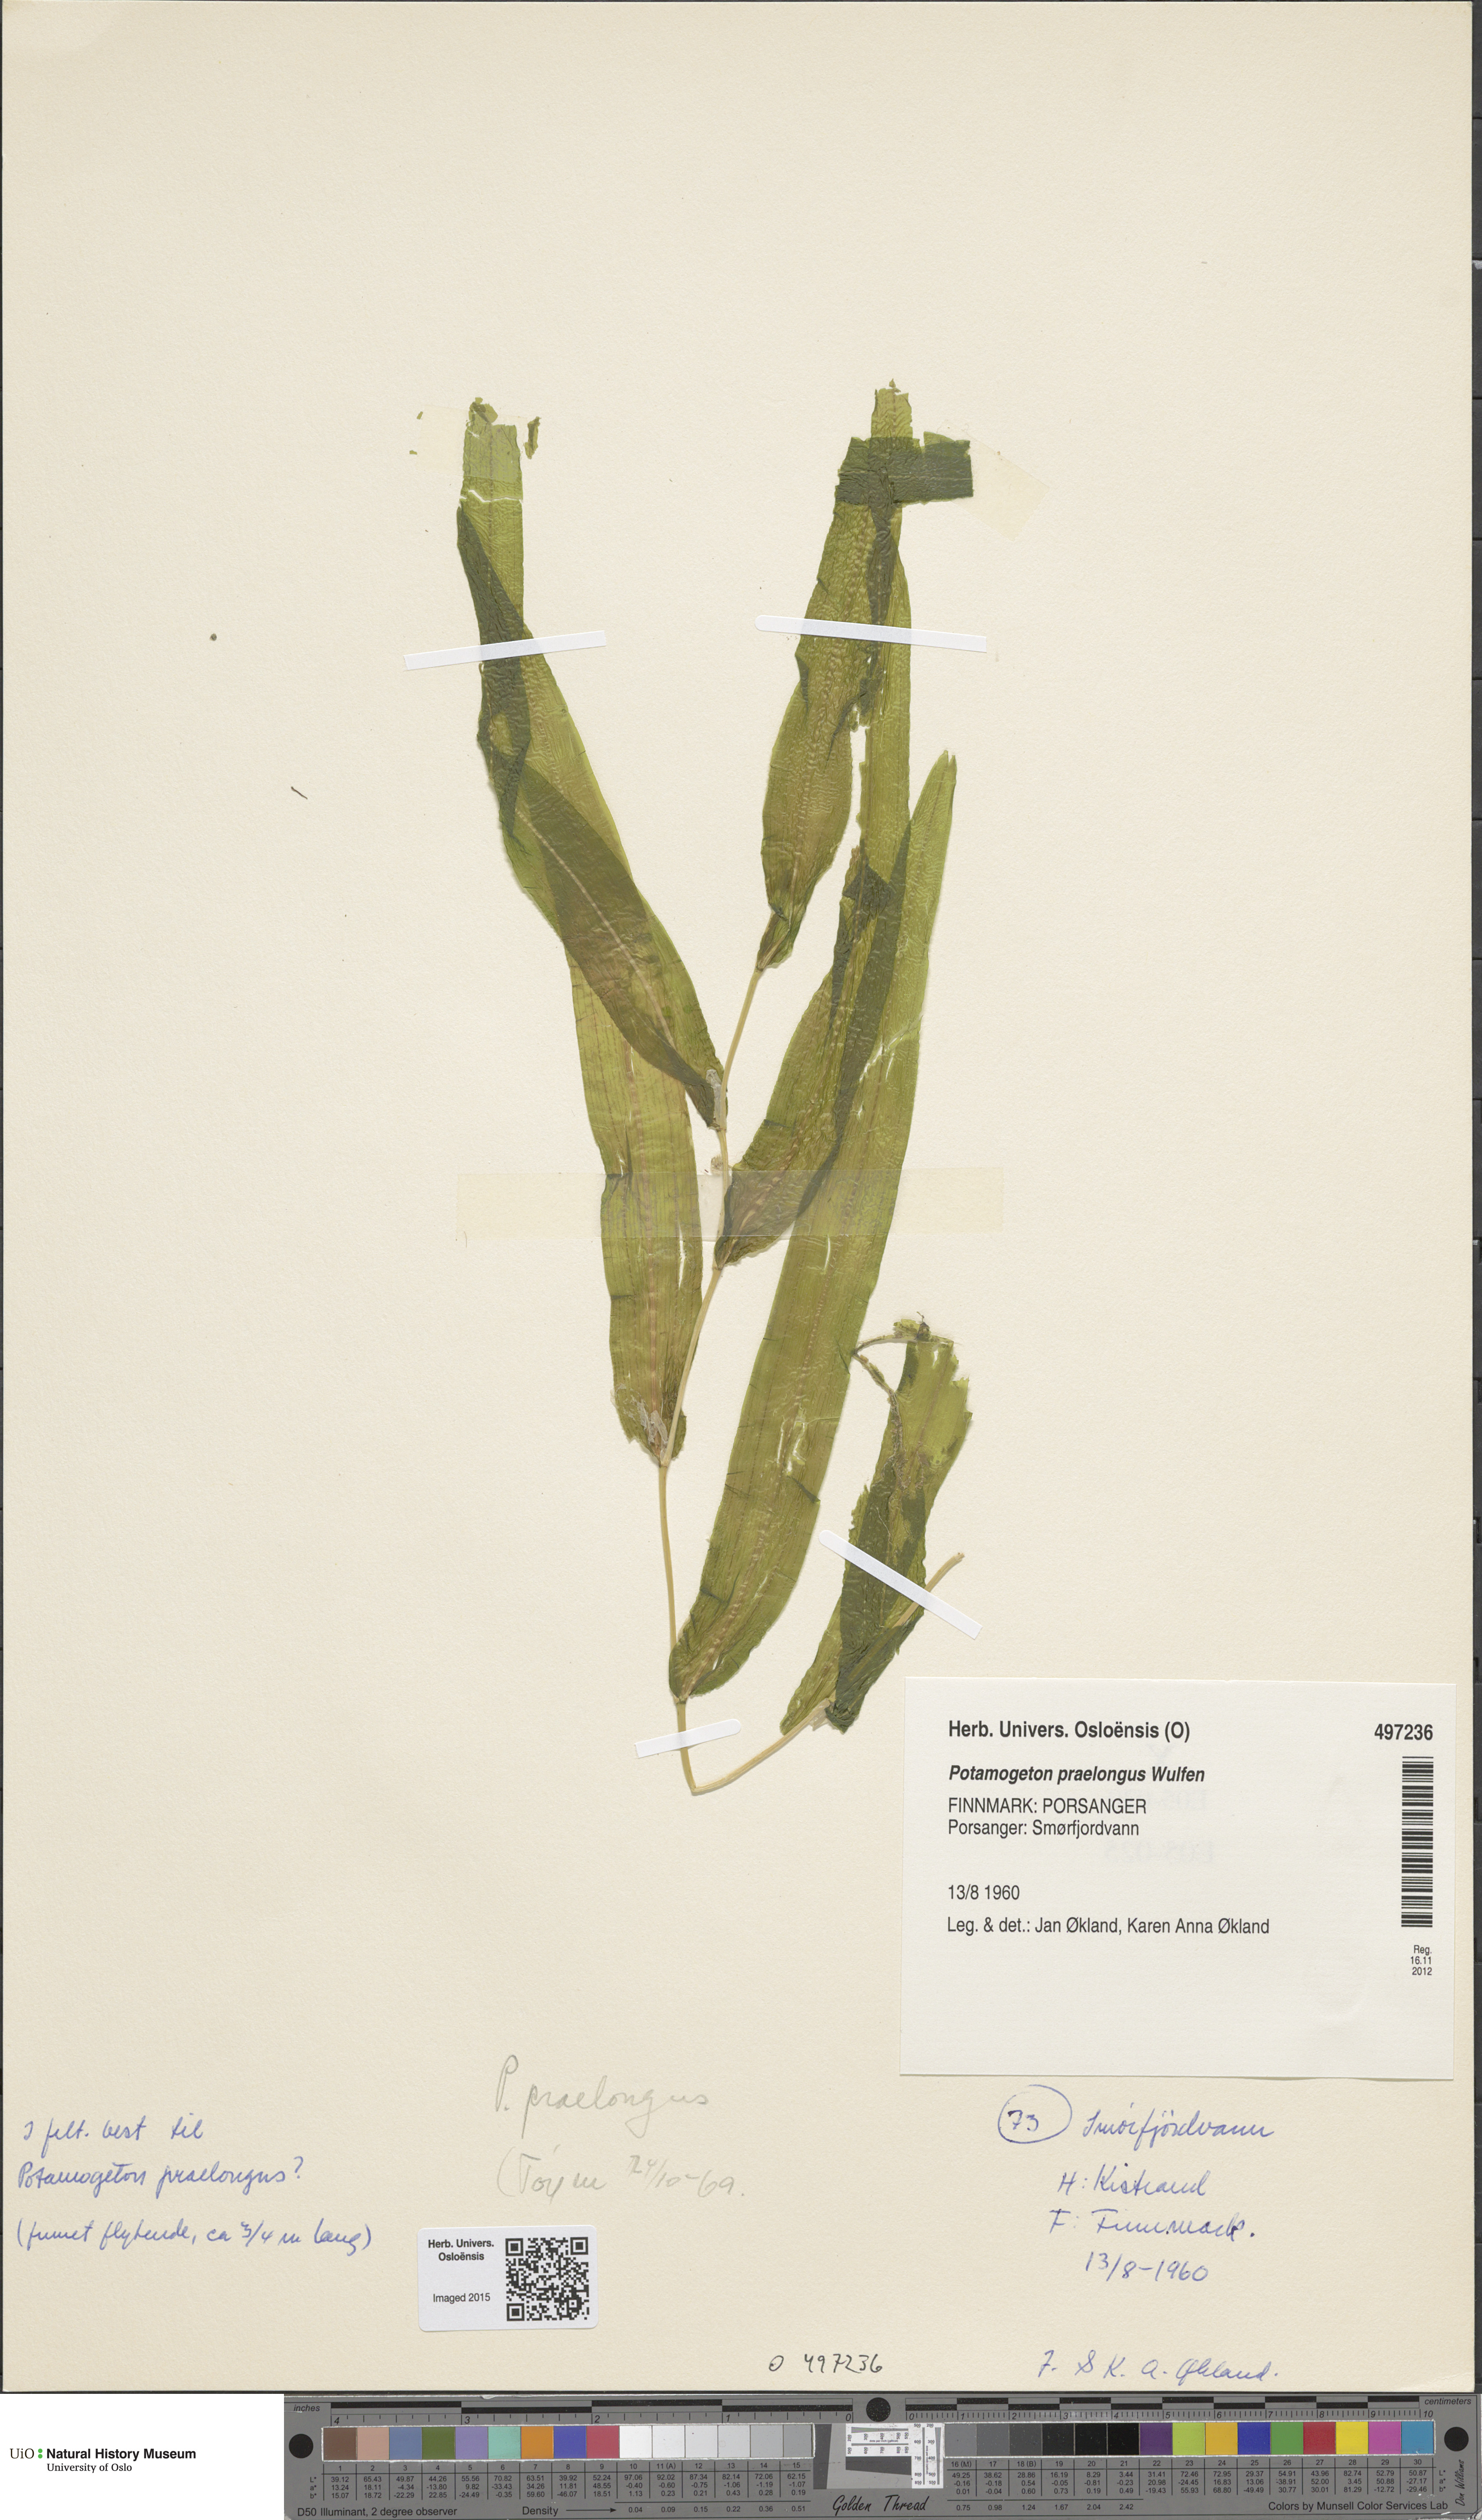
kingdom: Plantae
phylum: Tracheophyta
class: Liliopsida
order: Alismatales
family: Potamogetonaceae
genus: Potamogeton
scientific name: Potamogeton praelongus
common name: Long-stalked pondweed
